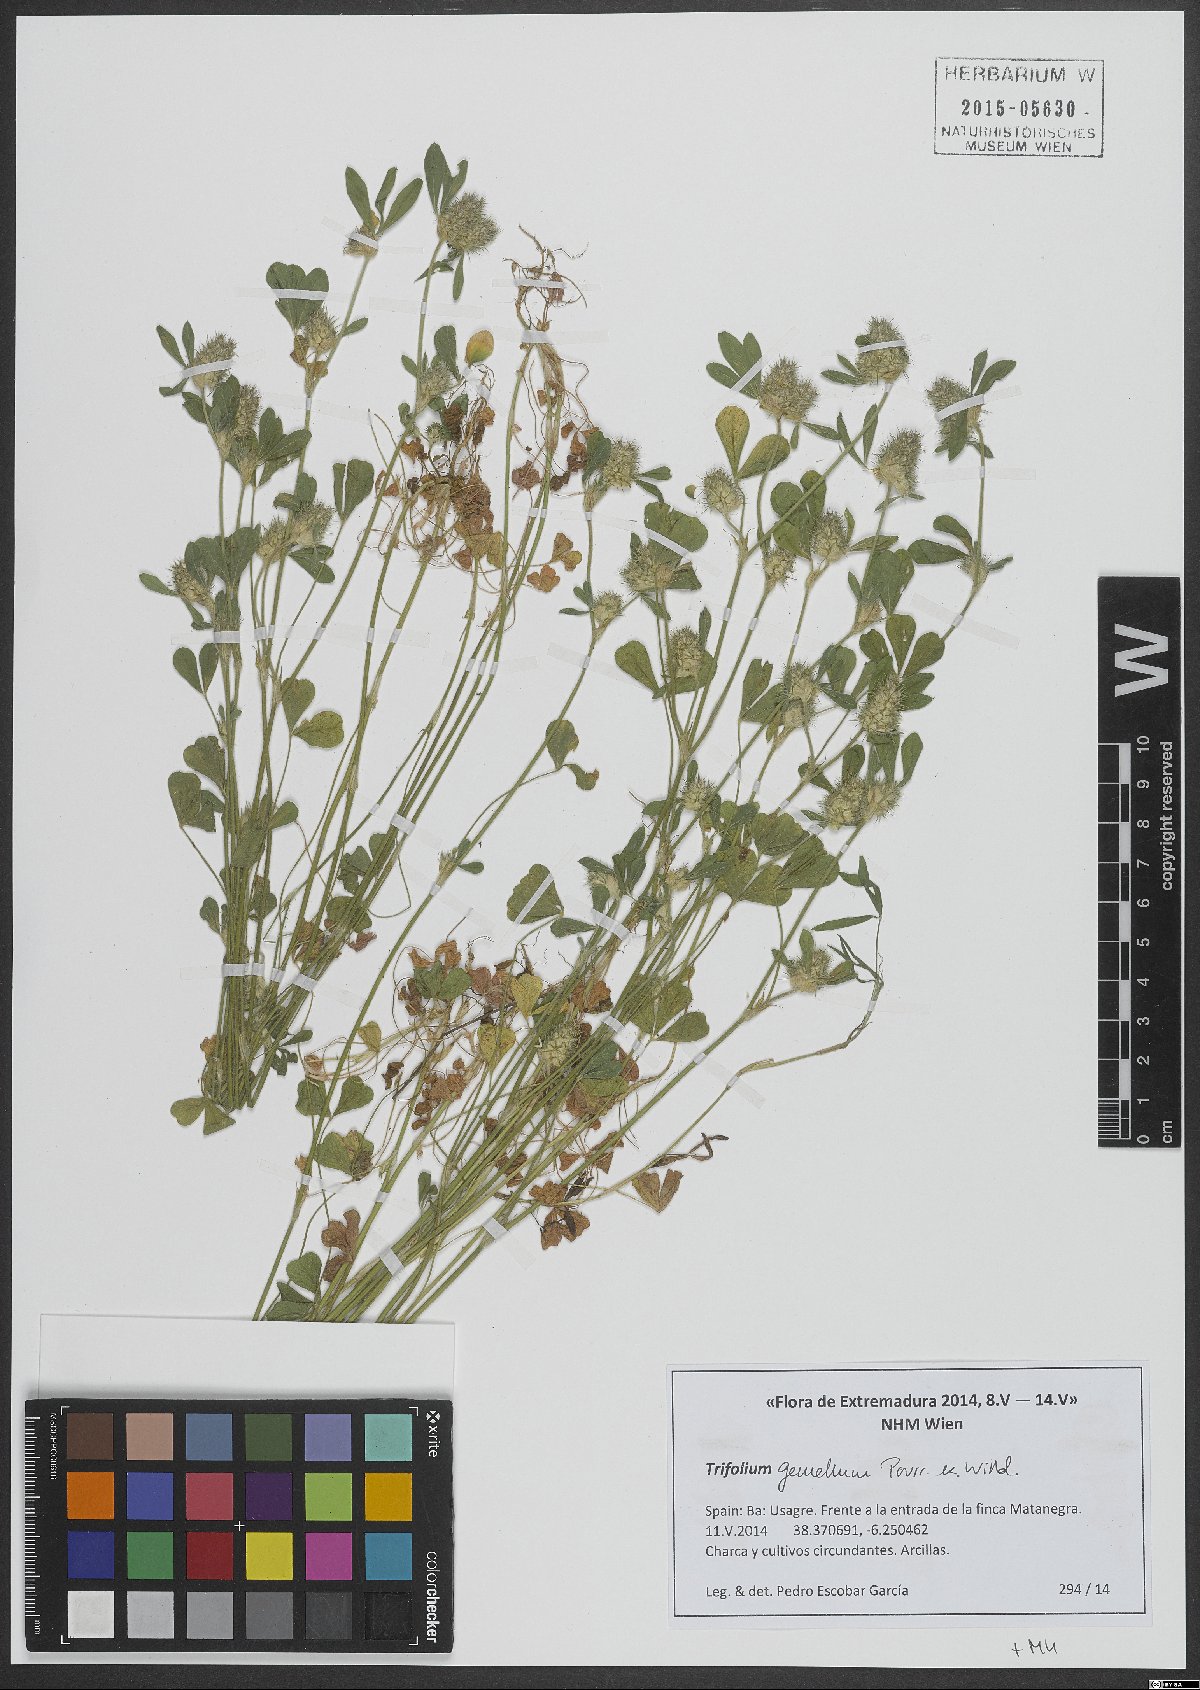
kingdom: Plantae
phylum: Tracheophyta
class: Magnoliopsida
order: Fabales
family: Fabaceae
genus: Trifolium
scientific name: Trifolium gemellum
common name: Spanish clover
